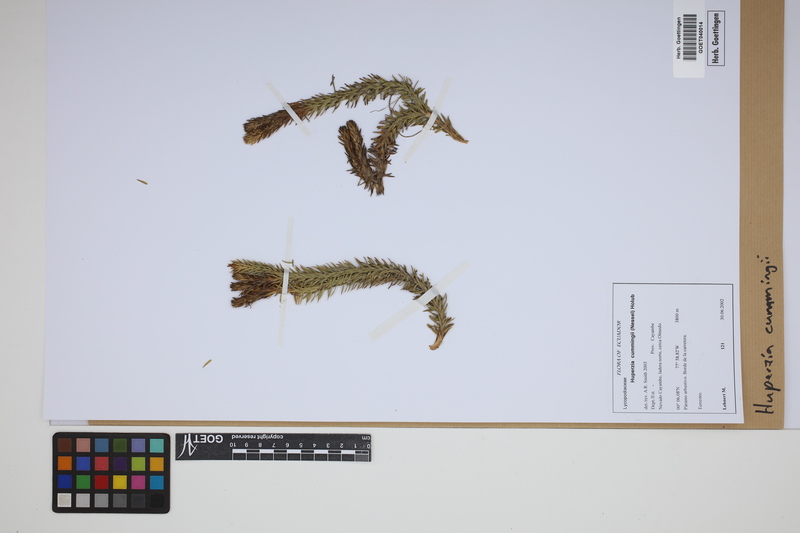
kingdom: Plantae
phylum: Tracheophyta
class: Lycopodiopsida
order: Lycopodiales
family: Lycopodiaceae
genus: Phlegmariurus
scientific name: Phlegmariurus cumingii
